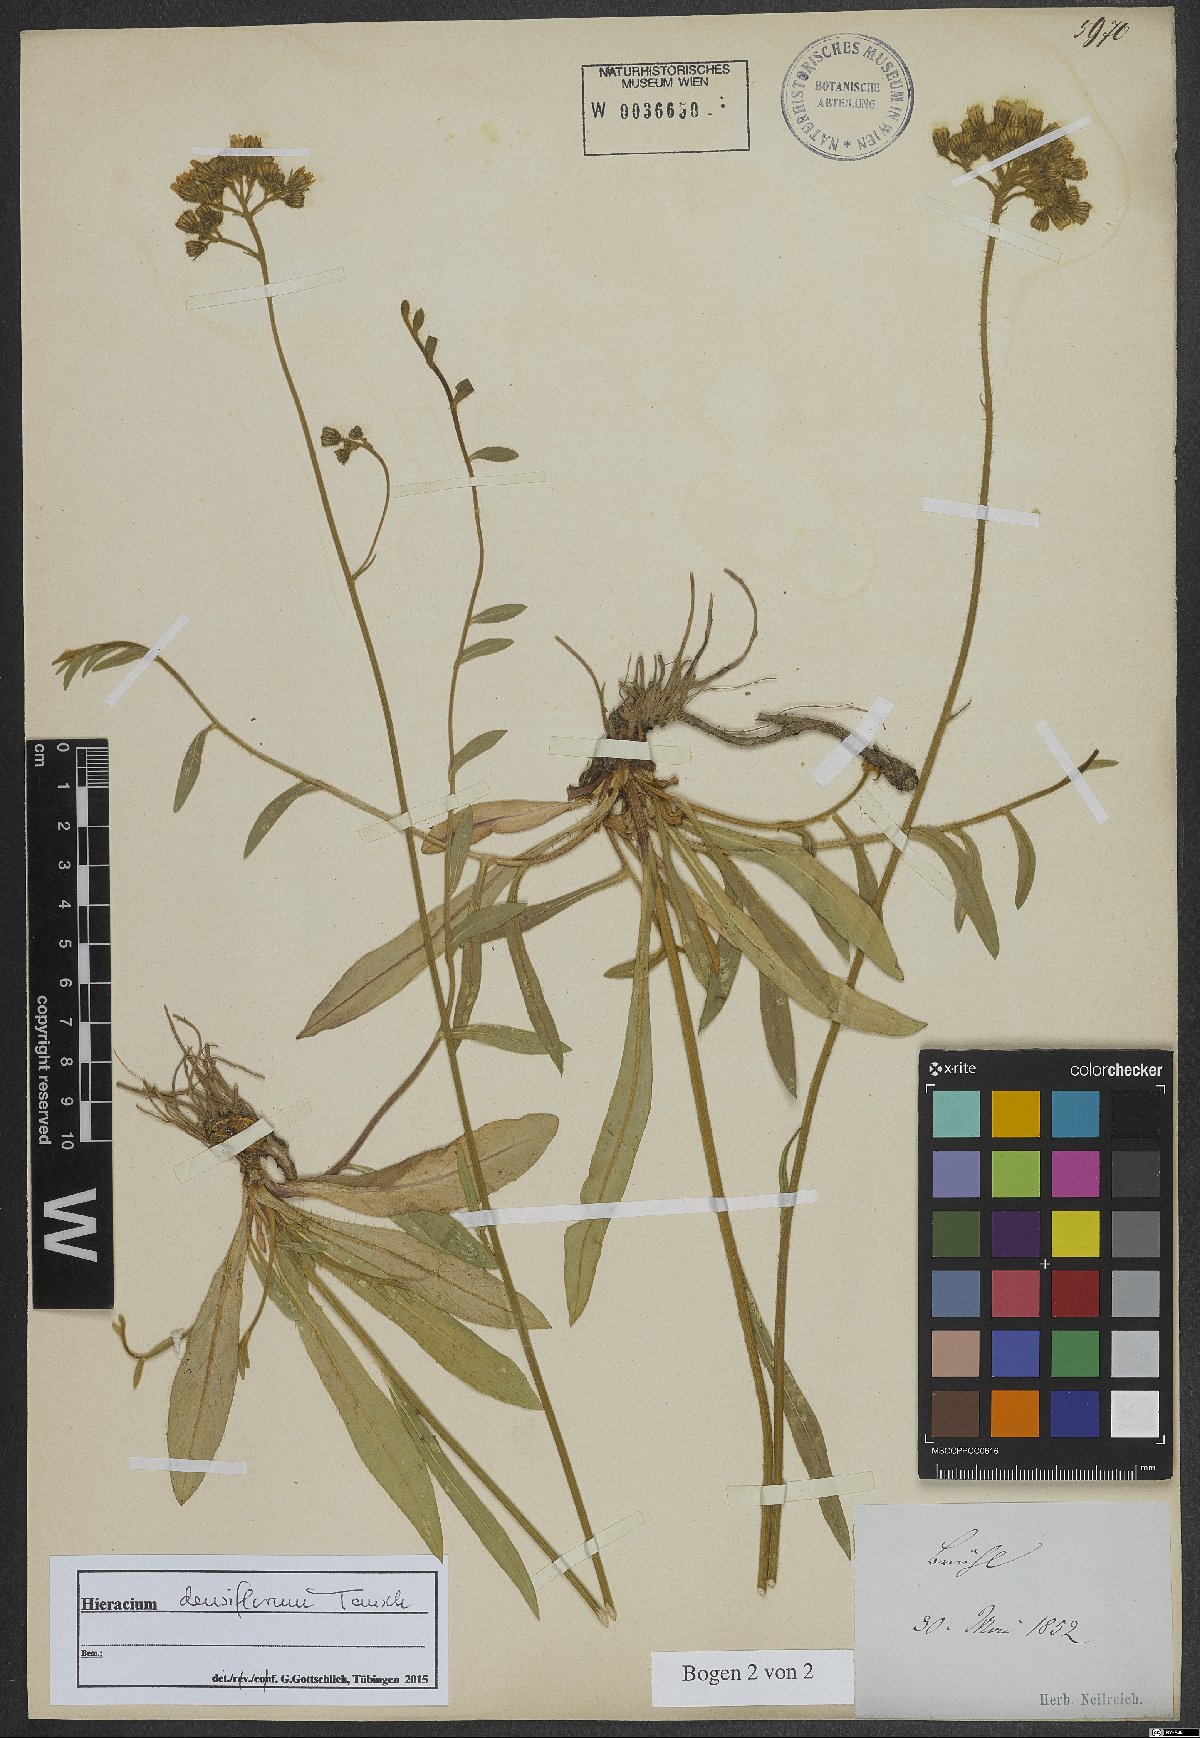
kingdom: Plantae
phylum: Tracheophyta
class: Magnoliopsida
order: Asterales
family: Asteraceae
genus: Pilosella
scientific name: Pilosella densiflora
